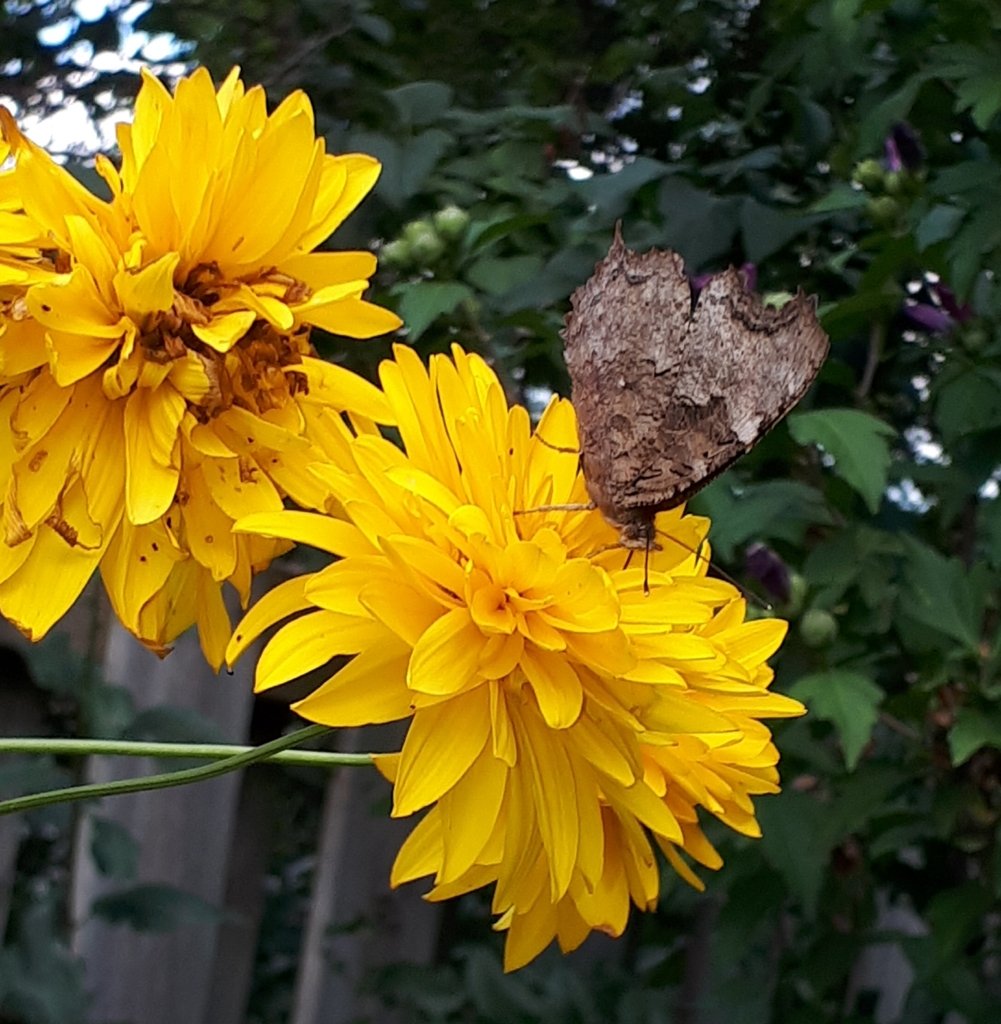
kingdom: Animalia
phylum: Arthropoda
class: Insecta
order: Lepidoptera
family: Nymphalidae
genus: Polygonia
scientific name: Polygonia vaualbum
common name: Compton Tortoiseshell
